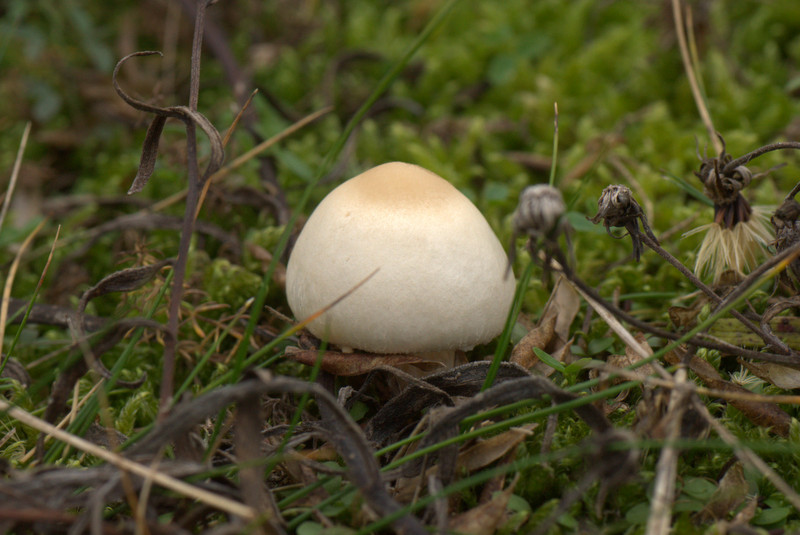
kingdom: Fungi
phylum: Basidiomycota
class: Agaricomycetes
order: Agaricales
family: Agaricaceae
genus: Lepiota
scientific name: Lepiota erminea
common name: hvid parasolhat
